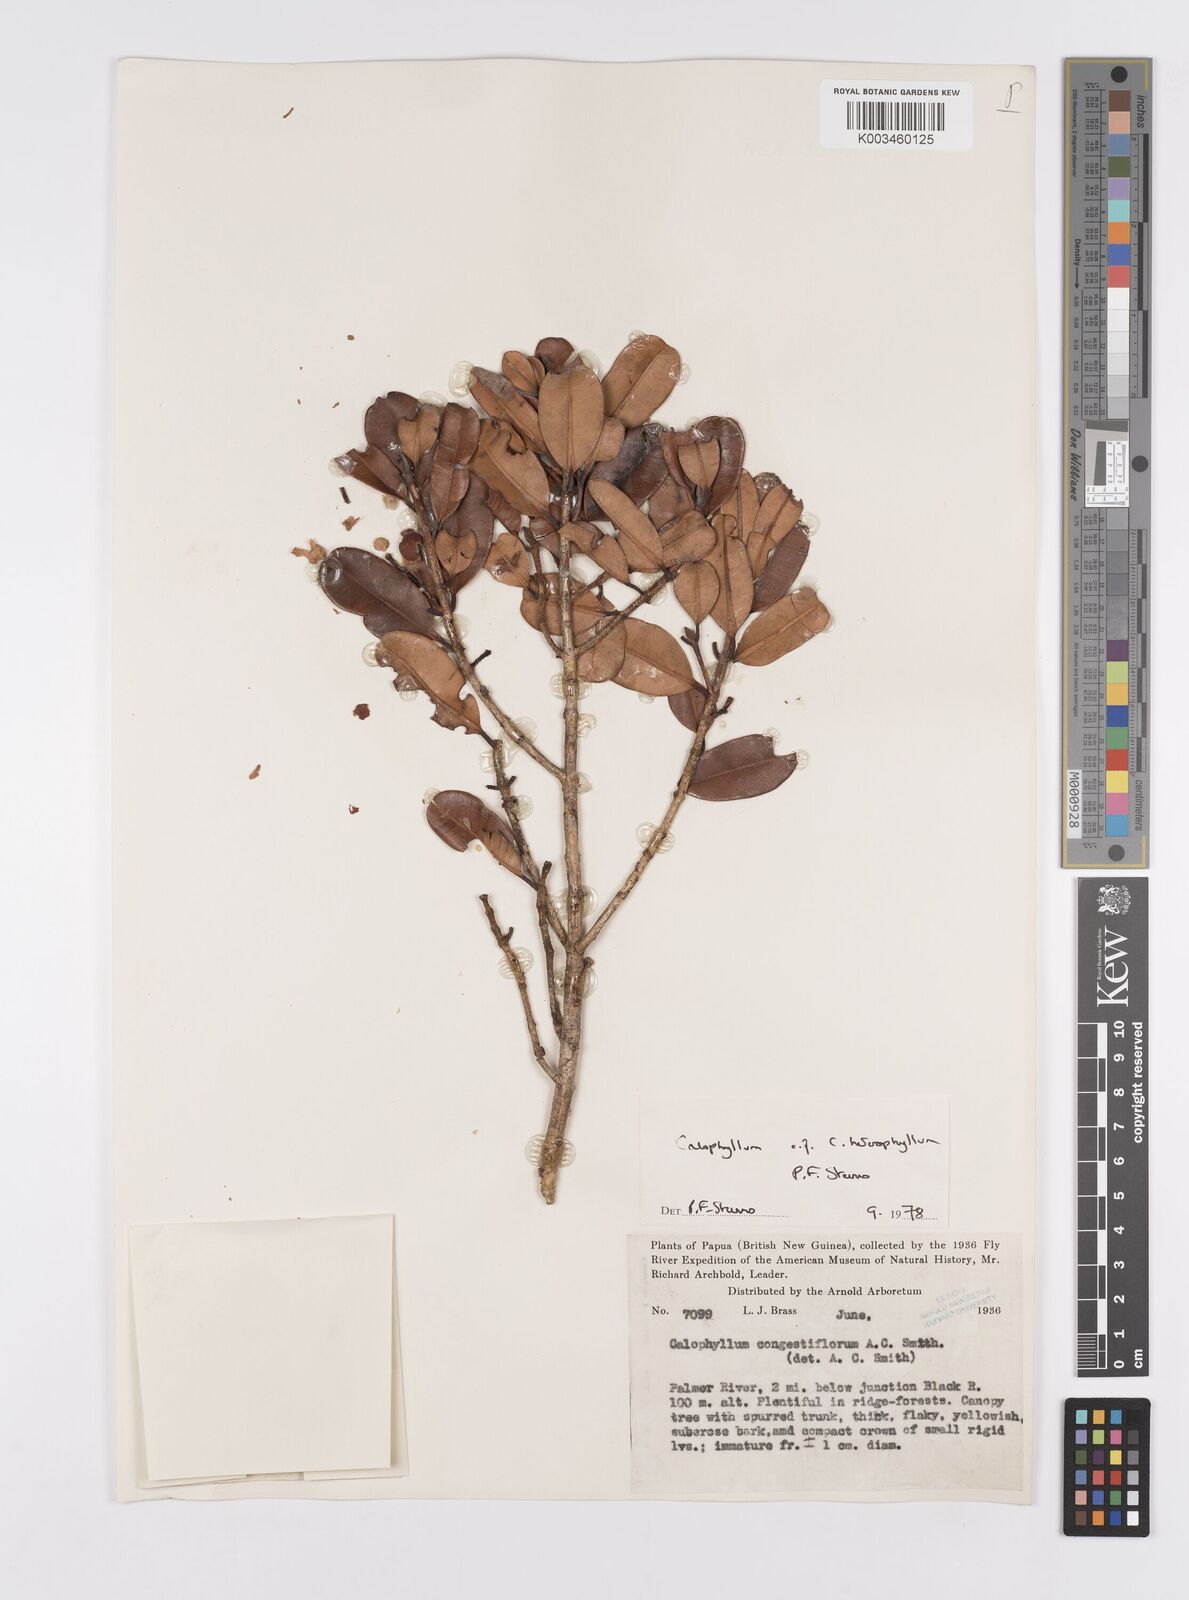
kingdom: Plantae
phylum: Tracheophyta
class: Magnoliopsida
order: Malpighiales
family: Calophyllaceae
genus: Calophyllum
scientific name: Calophyllum heterophyllum
